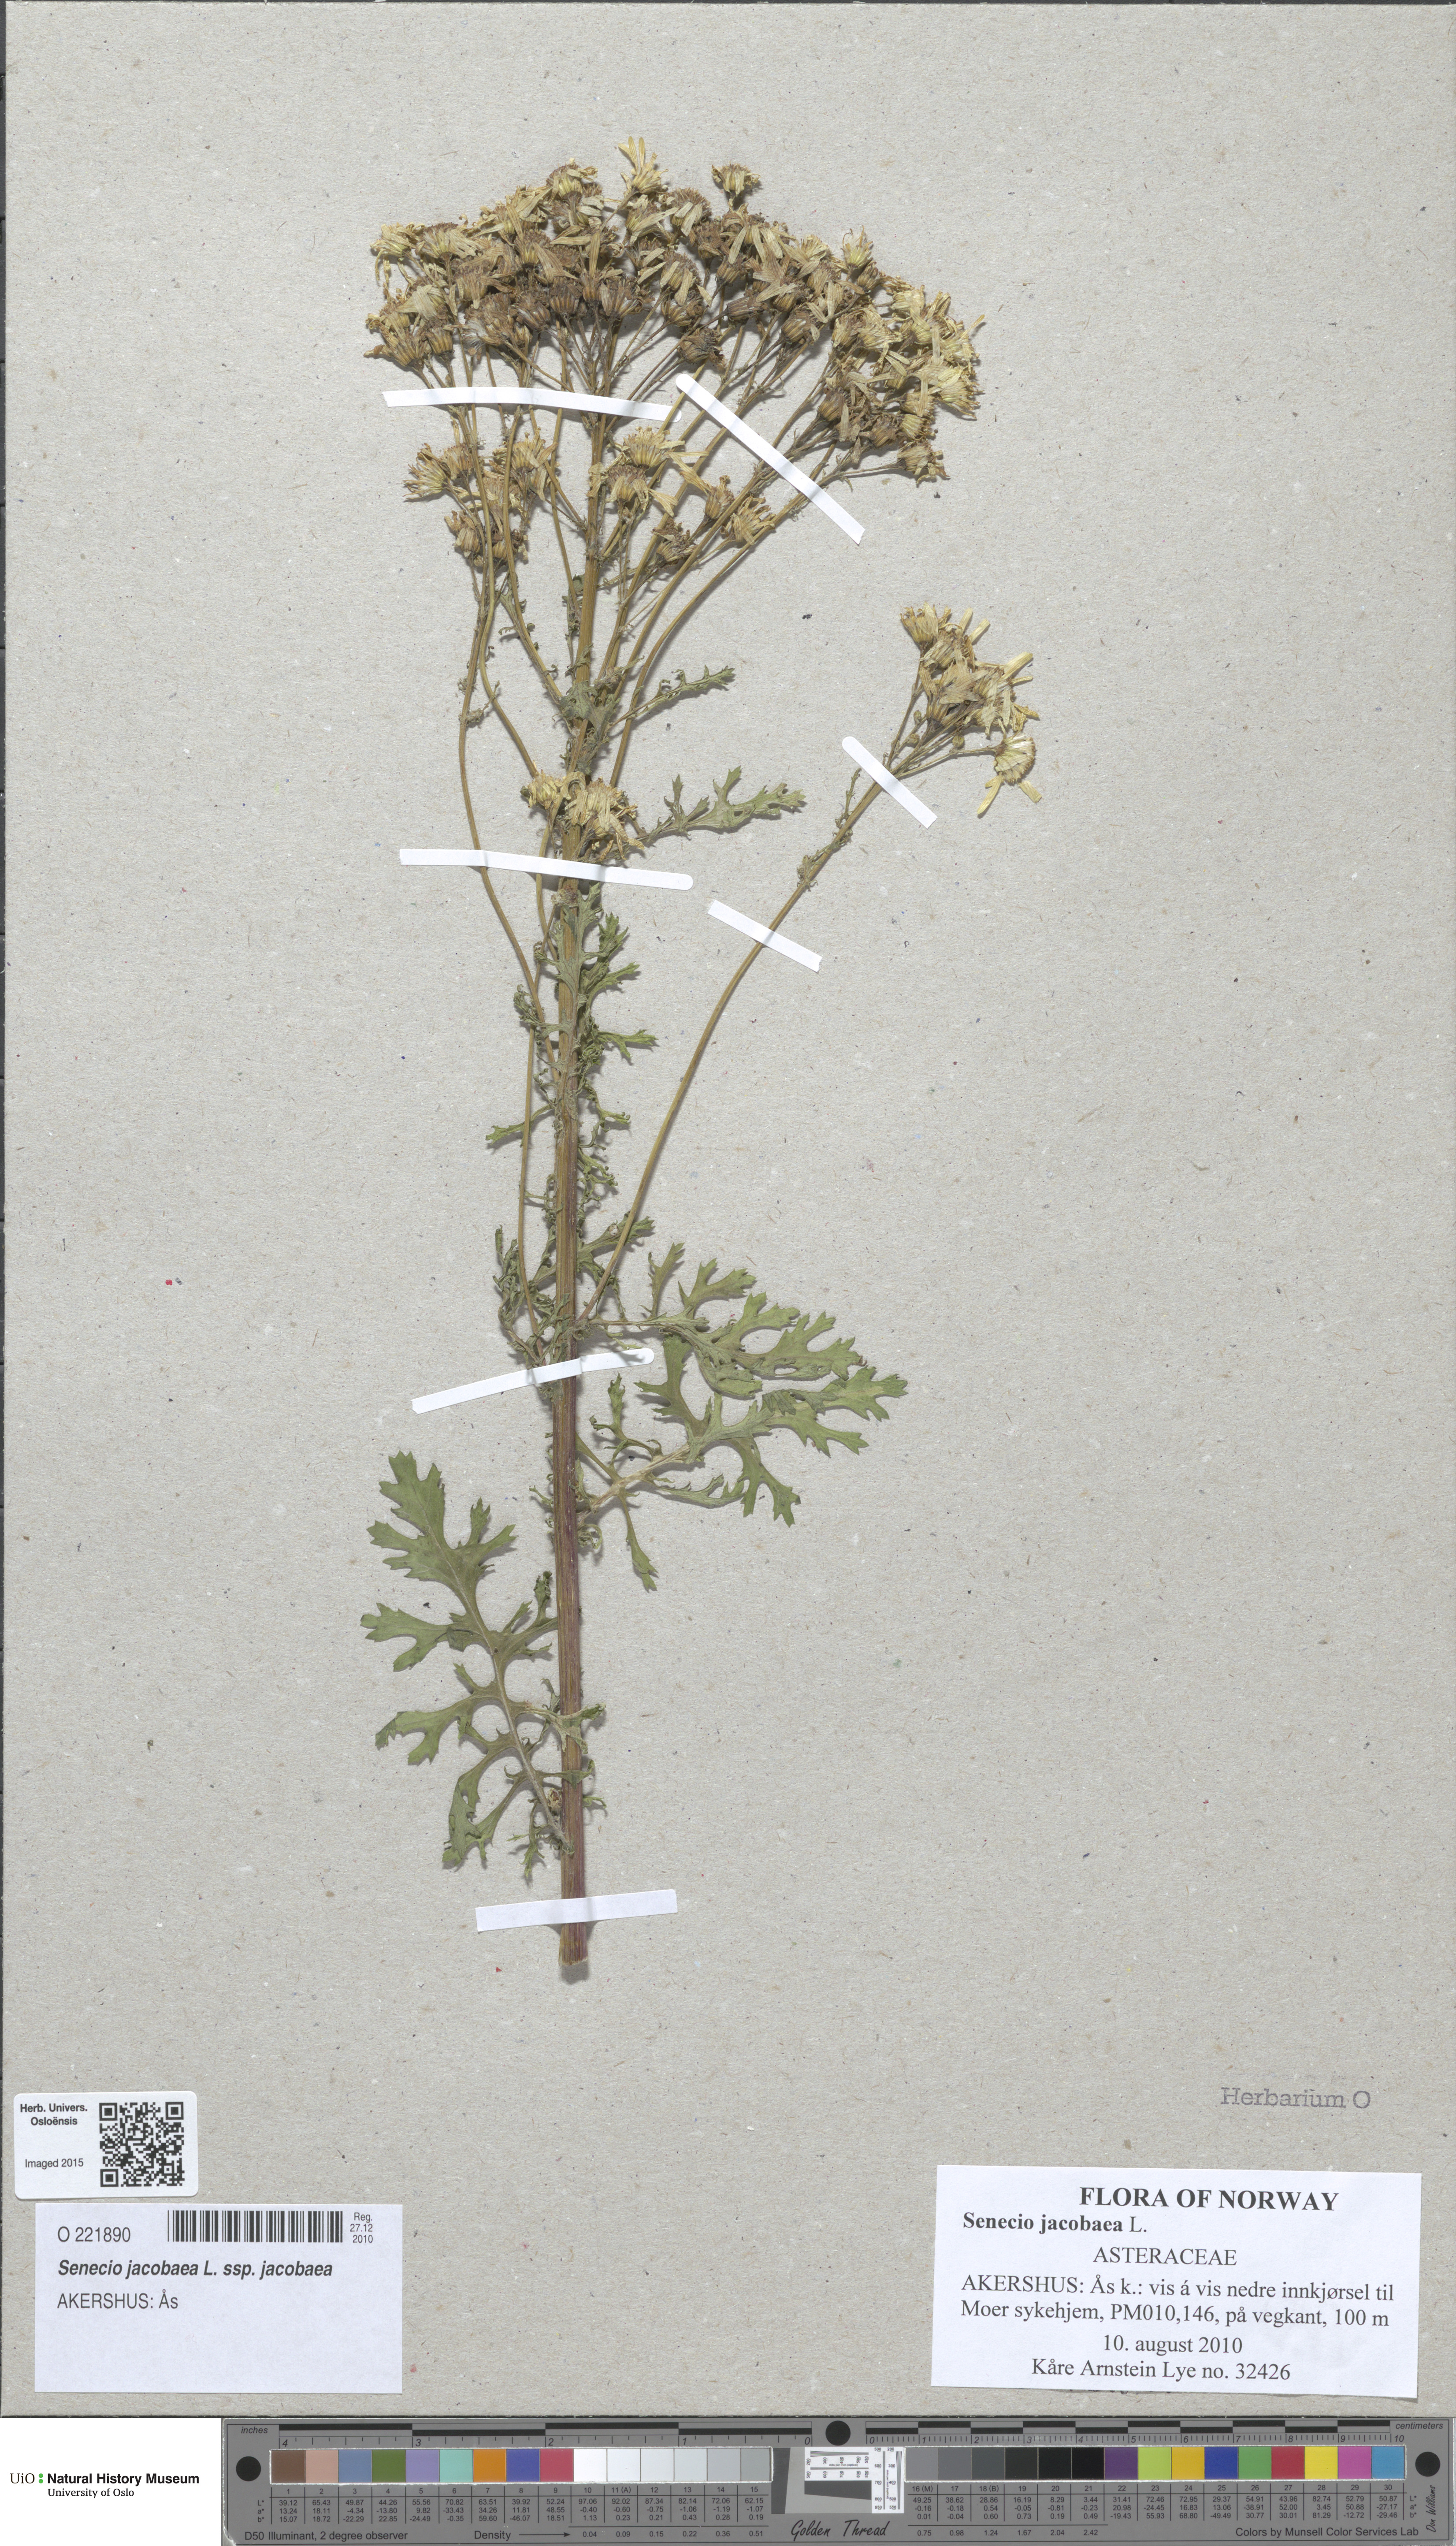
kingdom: Plantae
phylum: Tracheophyta
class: Magnoliopsida
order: Asterales
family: Asteraceae
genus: Jacobaea
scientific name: Jacobaea vulgaris
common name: Stinking willie
